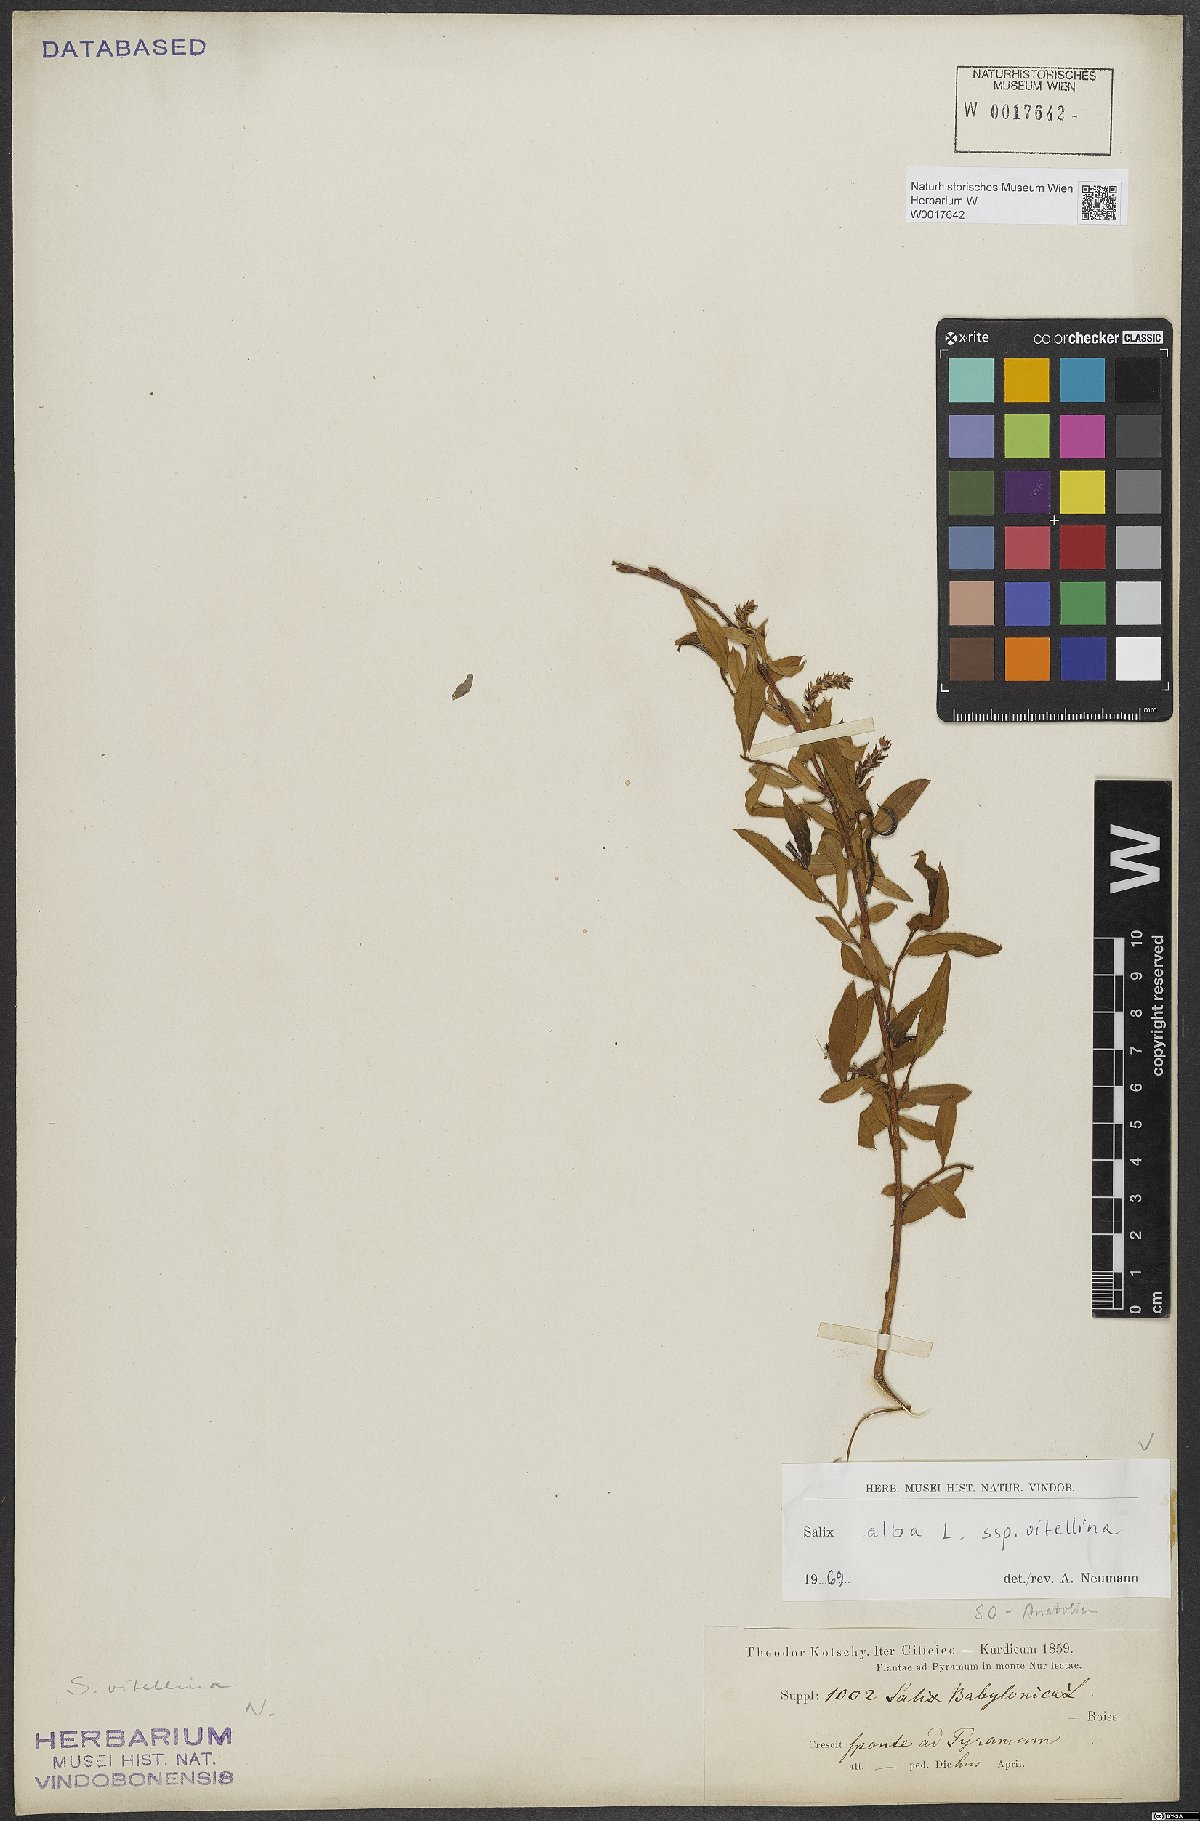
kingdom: Plantae
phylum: Tracheophyta
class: Magnoliopsida
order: Malpighiales
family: Salicaceae
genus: Salix
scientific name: Salix alba
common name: White willow
